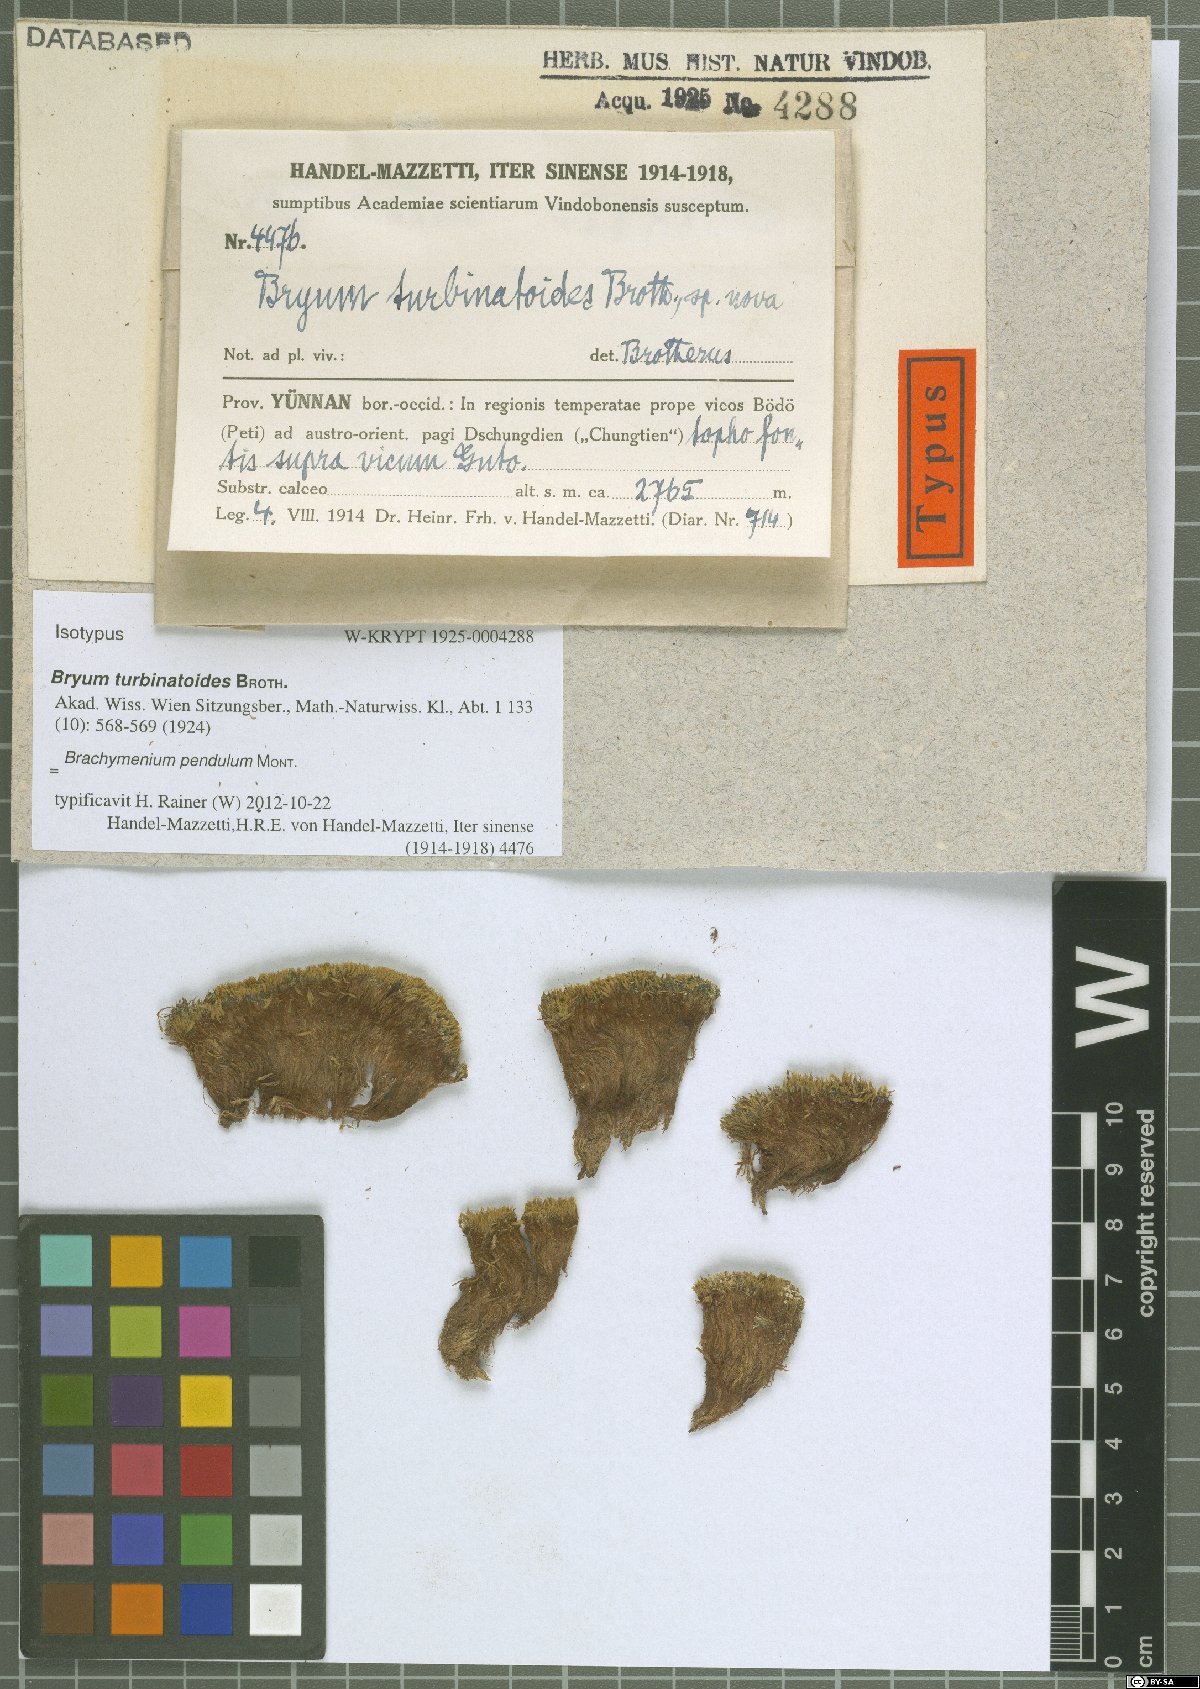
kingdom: Plantae
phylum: Bryophyta
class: Bryopsida
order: Bryales
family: Bryaceae
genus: Brachymenium
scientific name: Brachymenium pendulum
